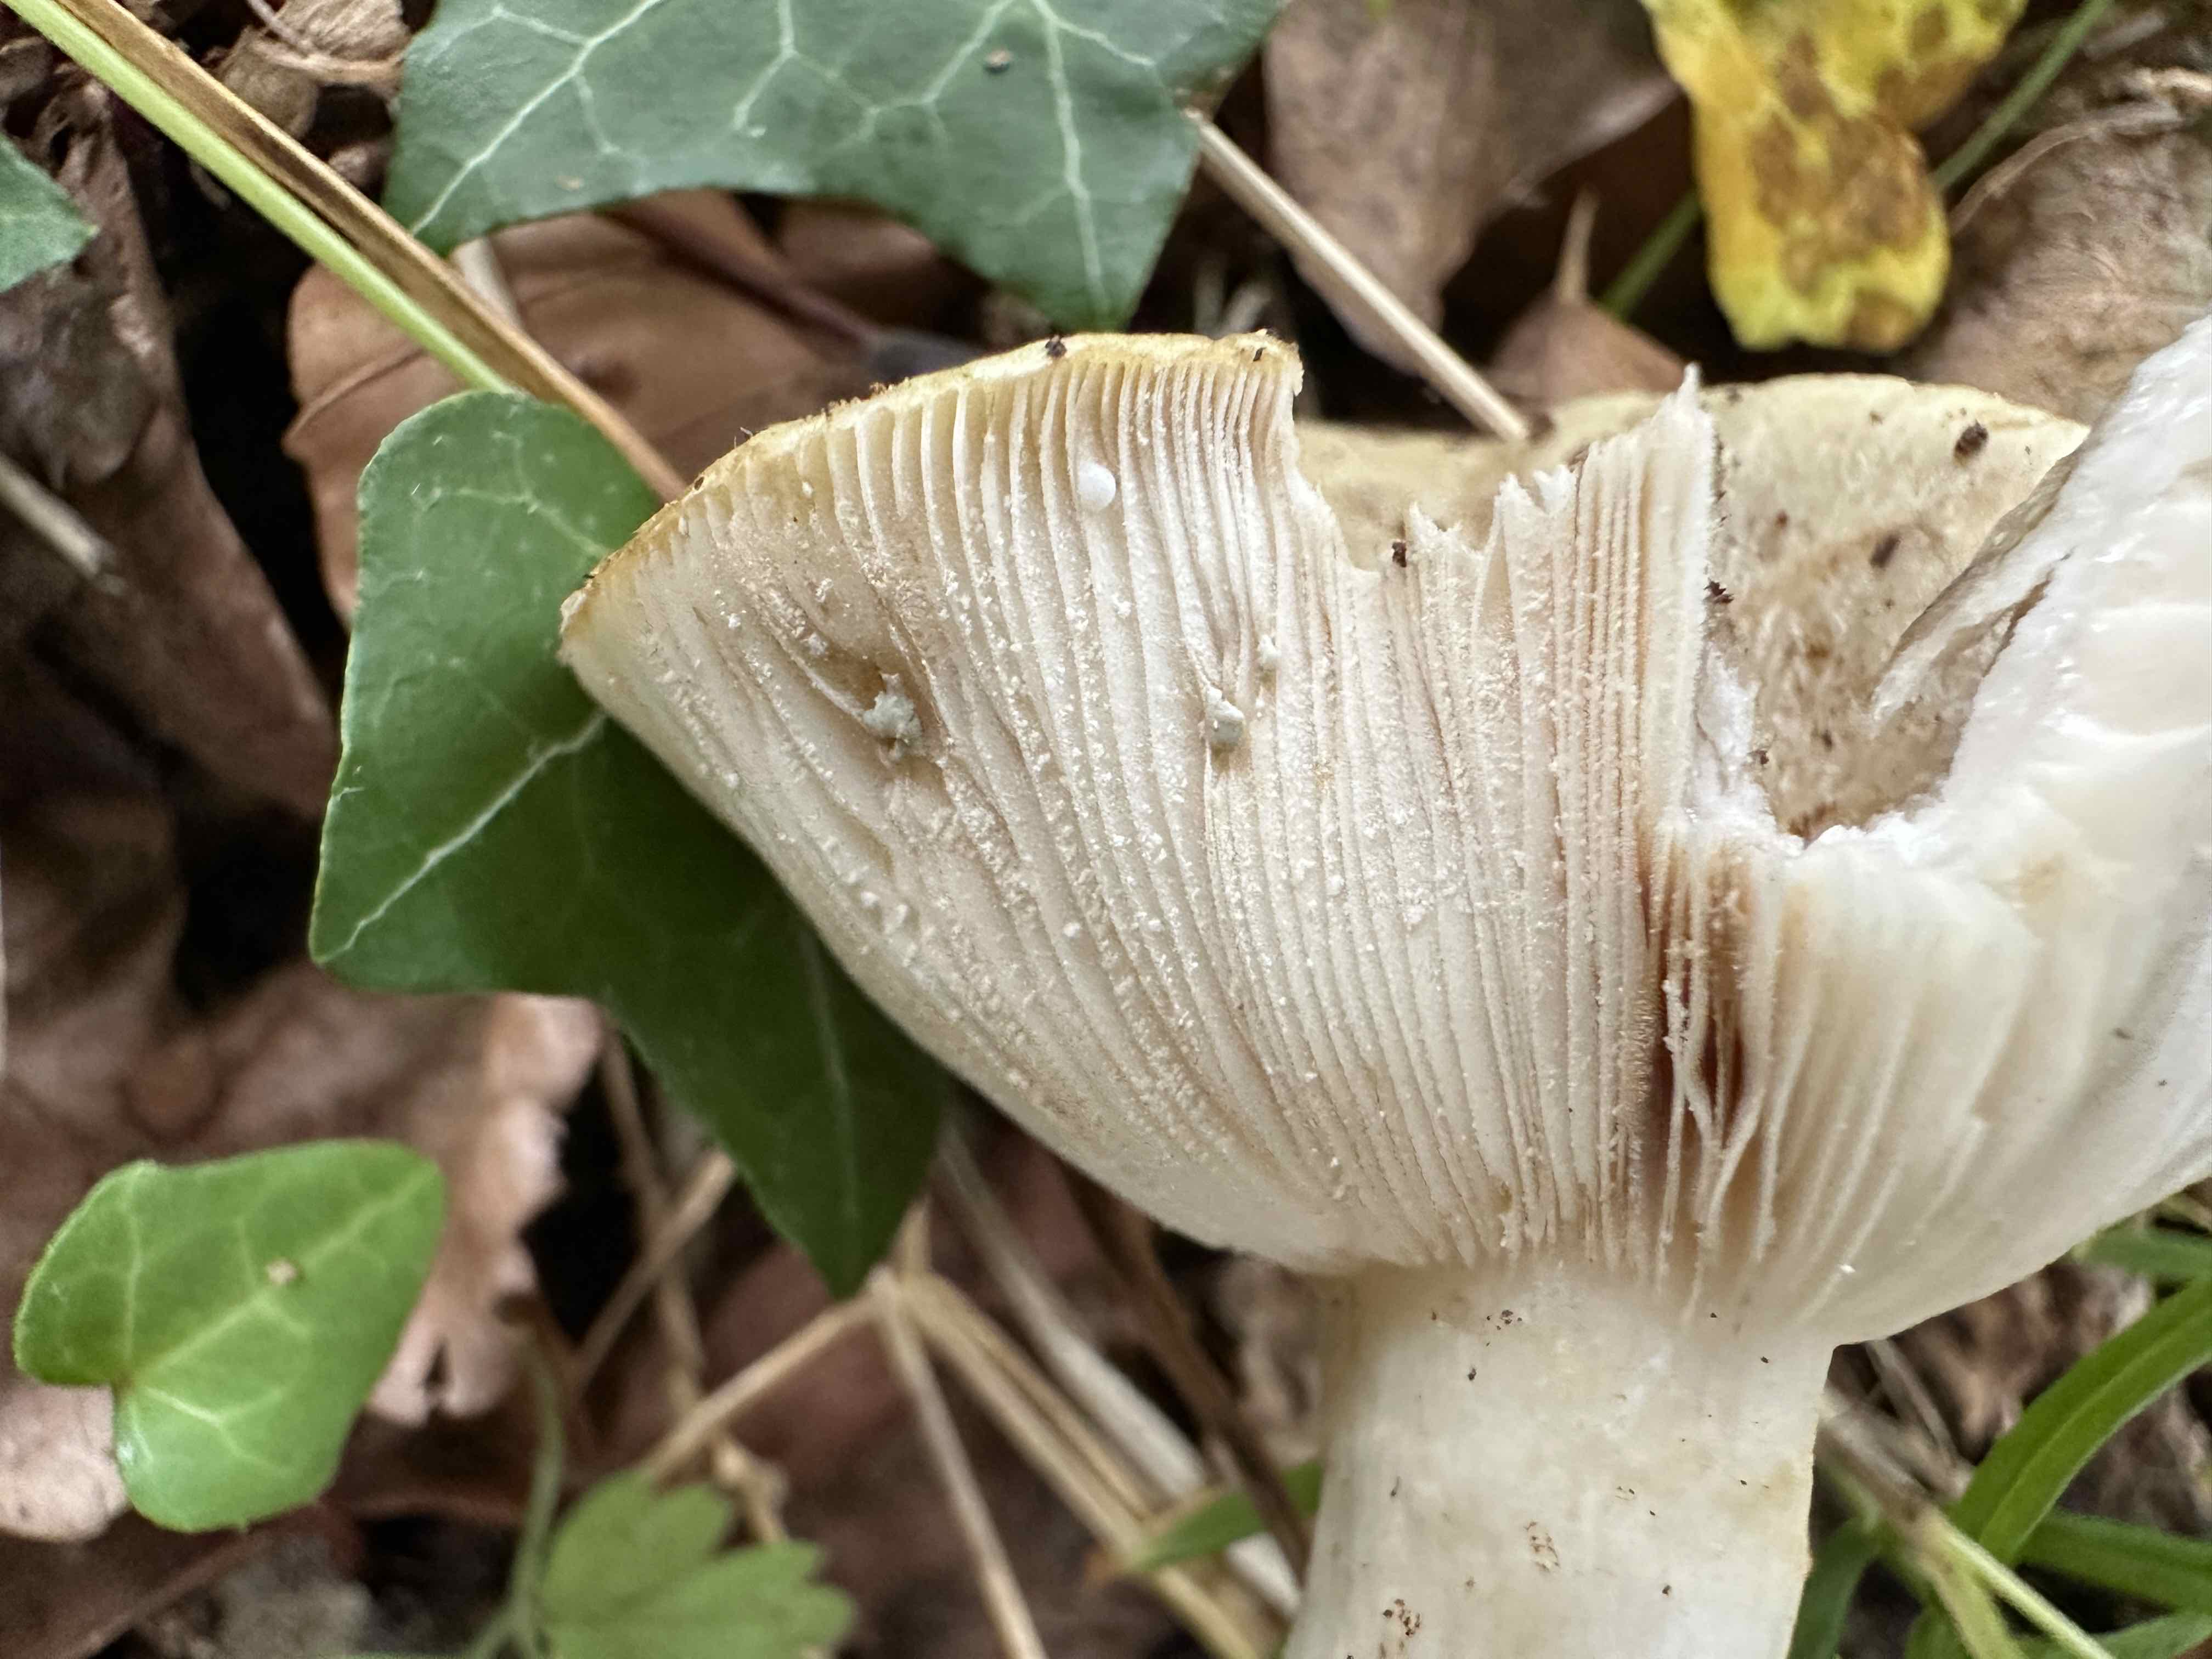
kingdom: Fungi
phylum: Basidiomycota
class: Agaricomycetes
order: Russulales
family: Russulaceae
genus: Lactarius
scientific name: Lactarius
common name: mælkehat
